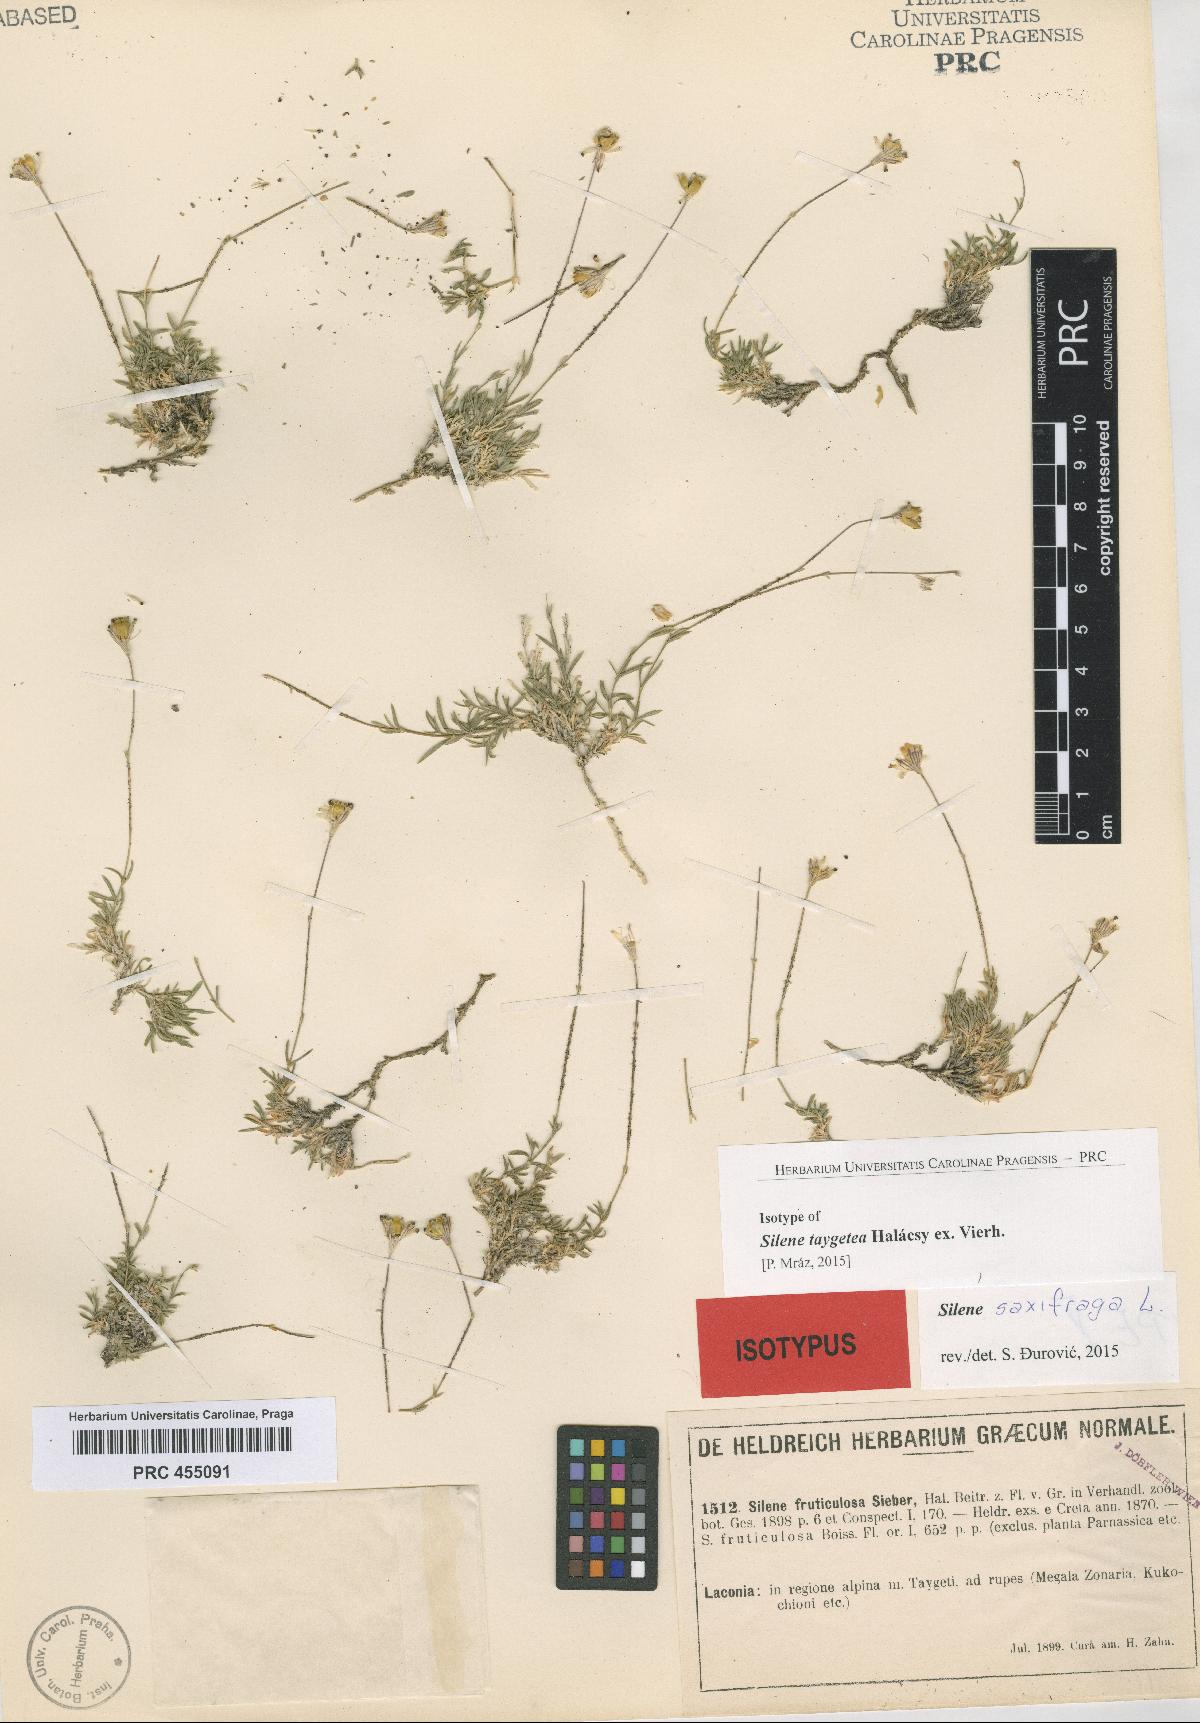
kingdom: Plantae
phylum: Tracheophyta
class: Magnoliopsida
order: Caryophyllales
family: Caryophyllaceae
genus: Silene
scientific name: Silene saxifraga
